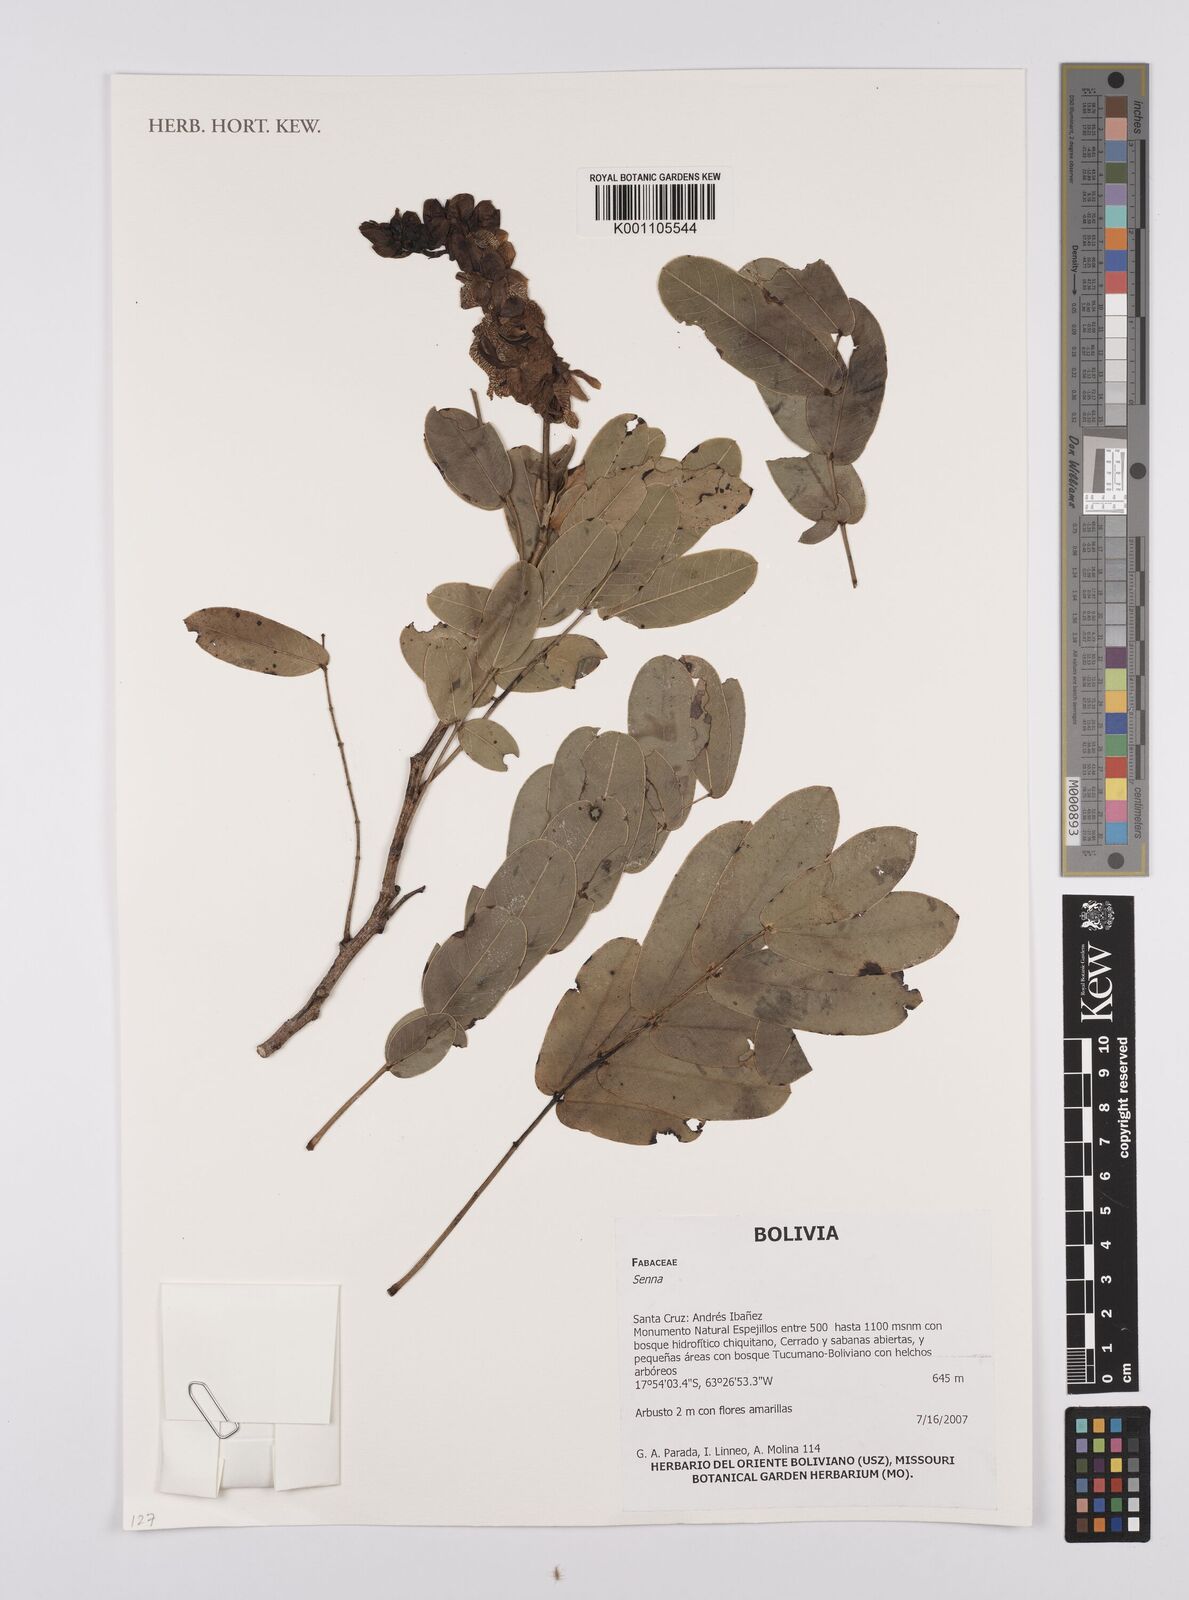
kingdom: Plantae
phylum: Tracheophyta
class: Magnoliopsida
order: Fabales
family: Fabaceae
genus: Senna
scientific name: Senna
